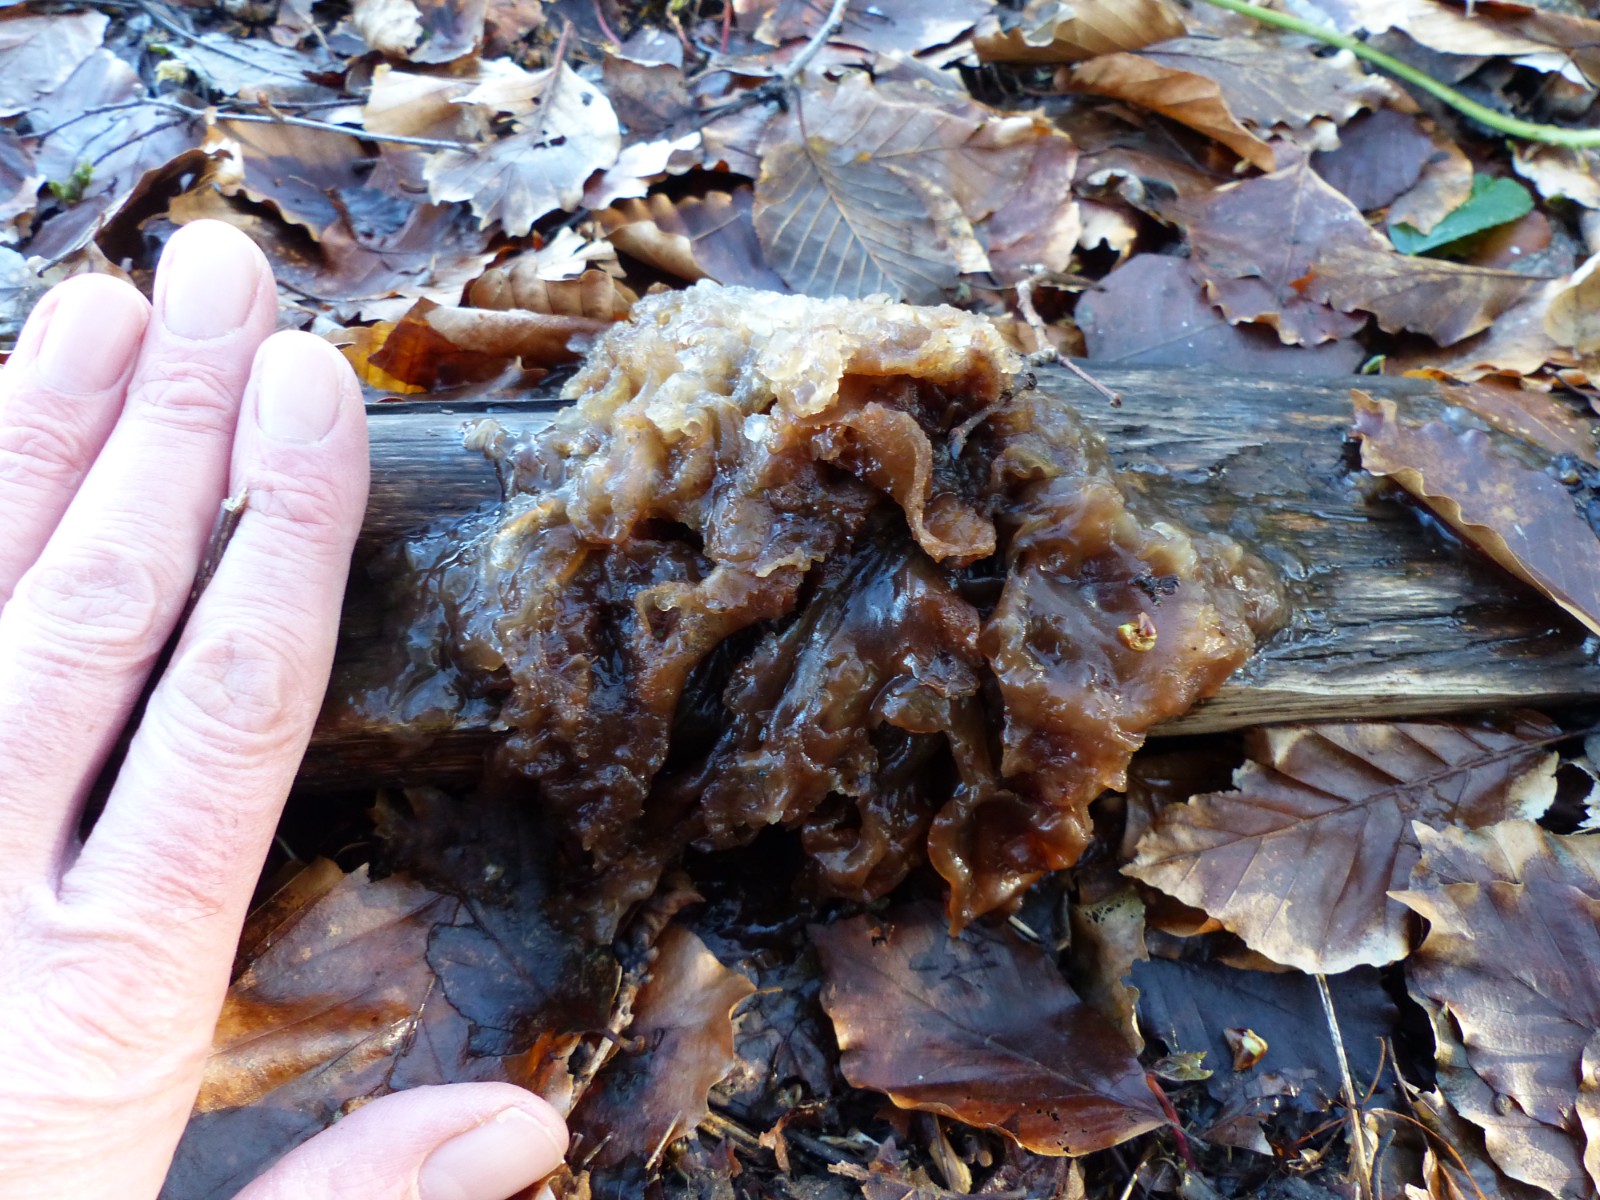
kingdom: Fungi
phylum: Basidiomycota
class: Tremellomycetes
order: Tremellales
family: Tremellaceae
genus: Phaeotremella
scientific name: Phaeotremella frondosa
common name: kæmpe-bævresvamp
